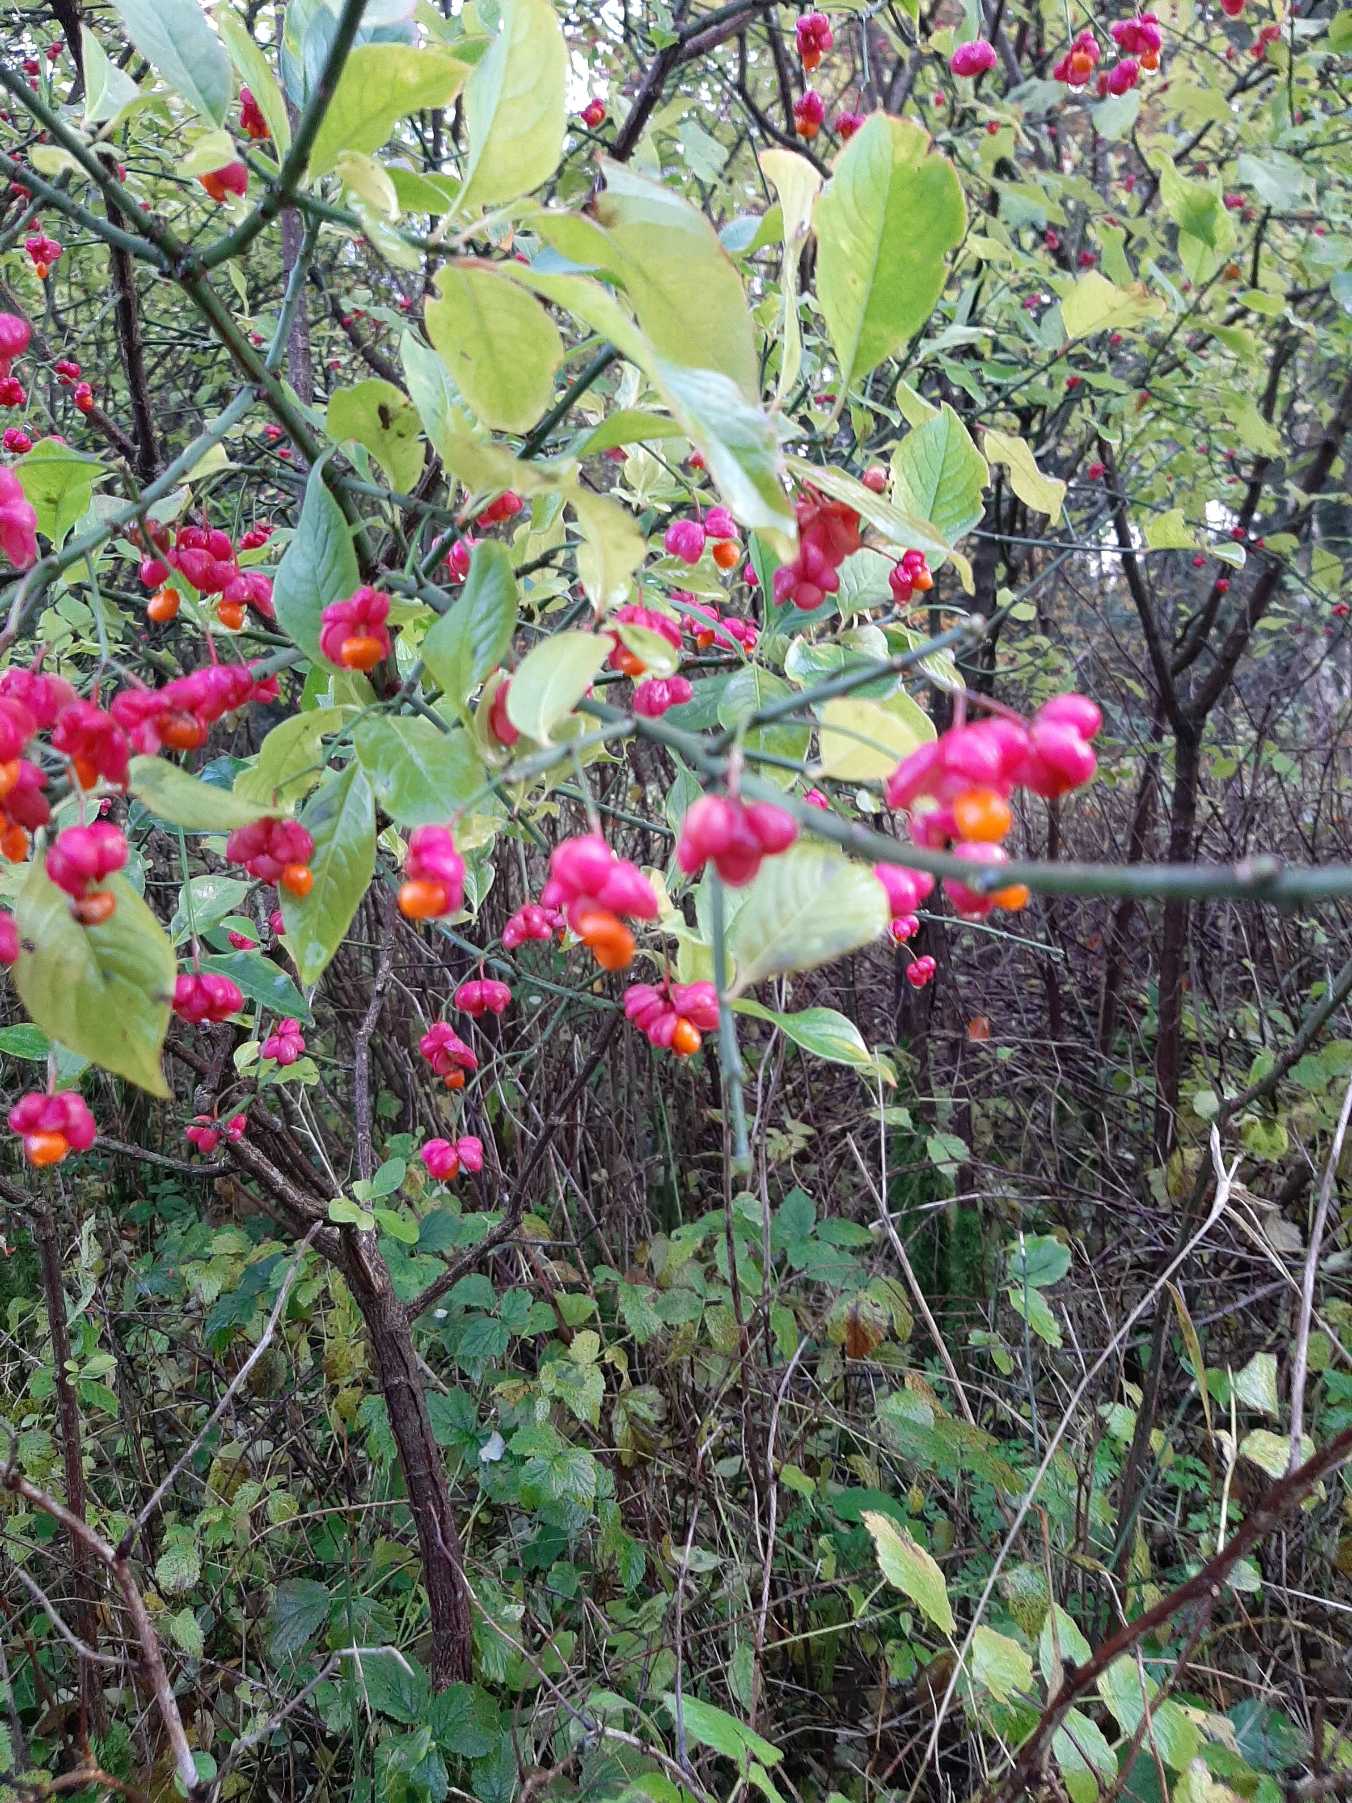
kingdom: Plantae
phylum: Tracheophyta
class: Magnoliopsida
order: Celastrales
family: Celastraceae
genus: Euonymus
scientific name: Euonymus europaeus
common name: Benved
